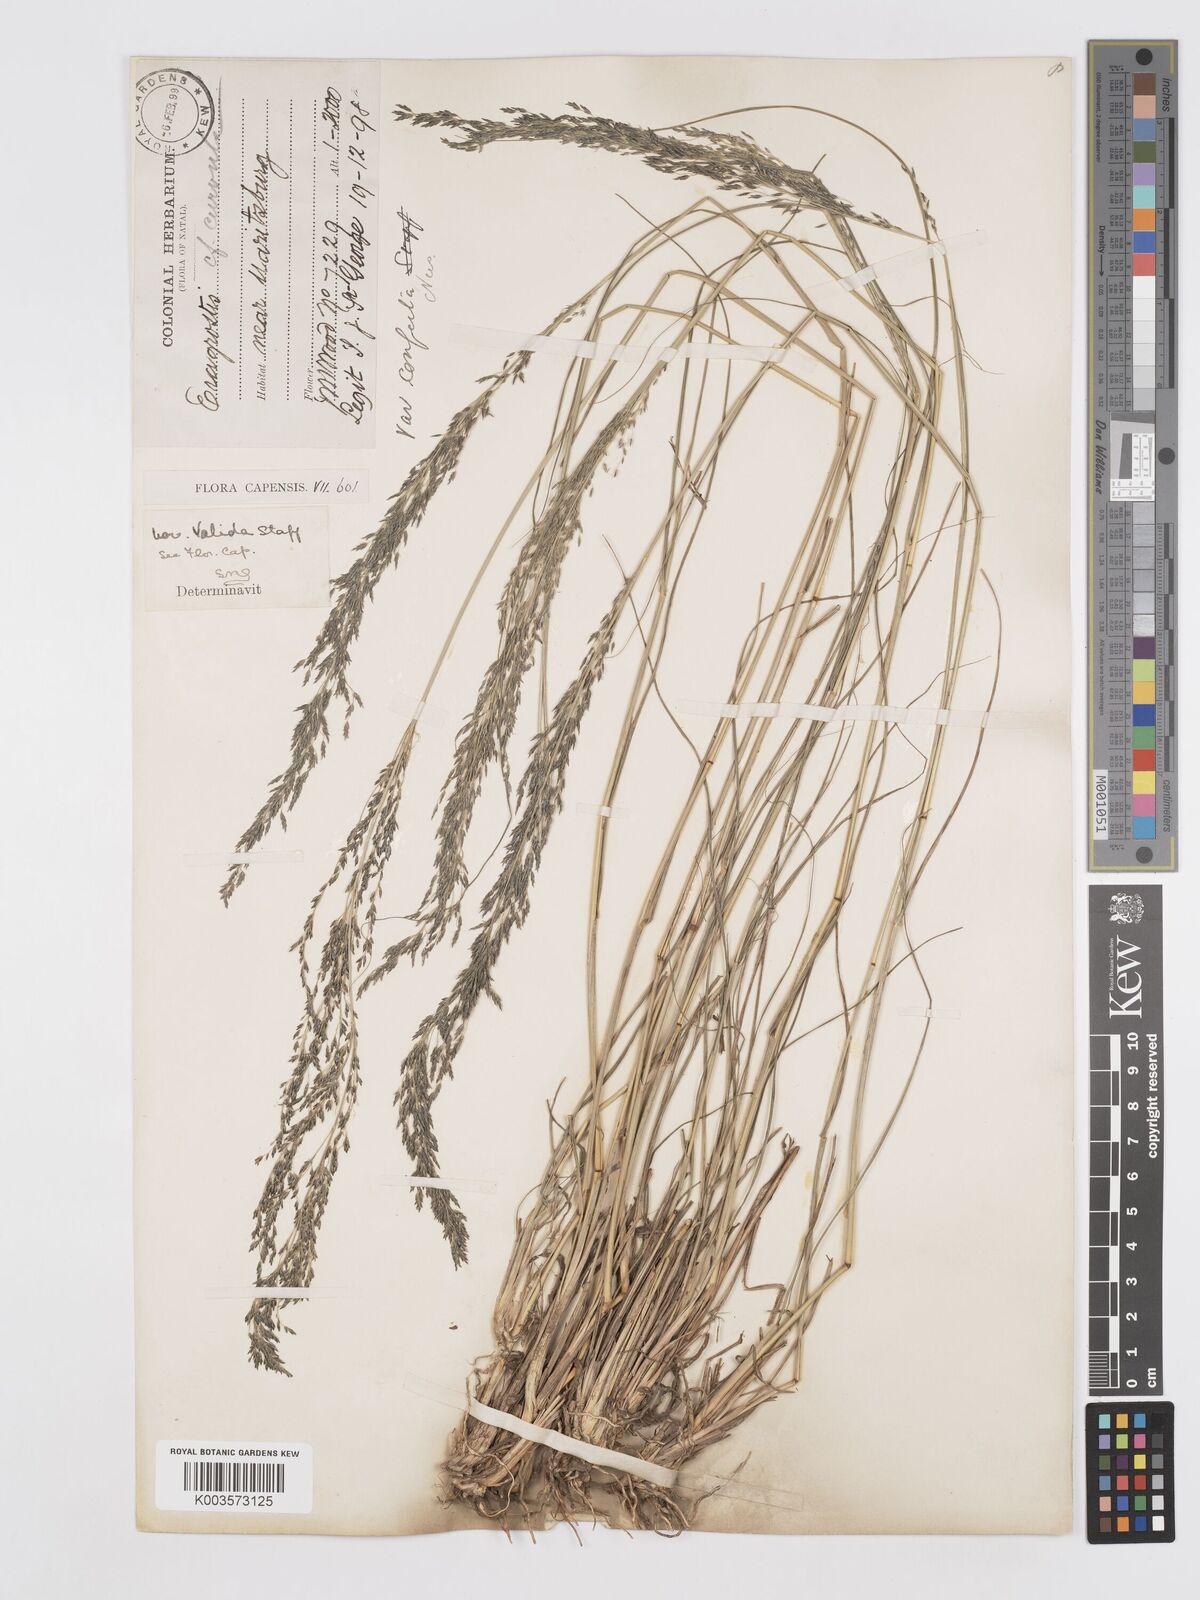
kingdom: Plantae
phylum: Tracheophyta
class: Liliopsida
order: Poales
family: Poaceae
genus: Eragrostis
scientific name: Eragrostis curvula
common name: African love-grass
